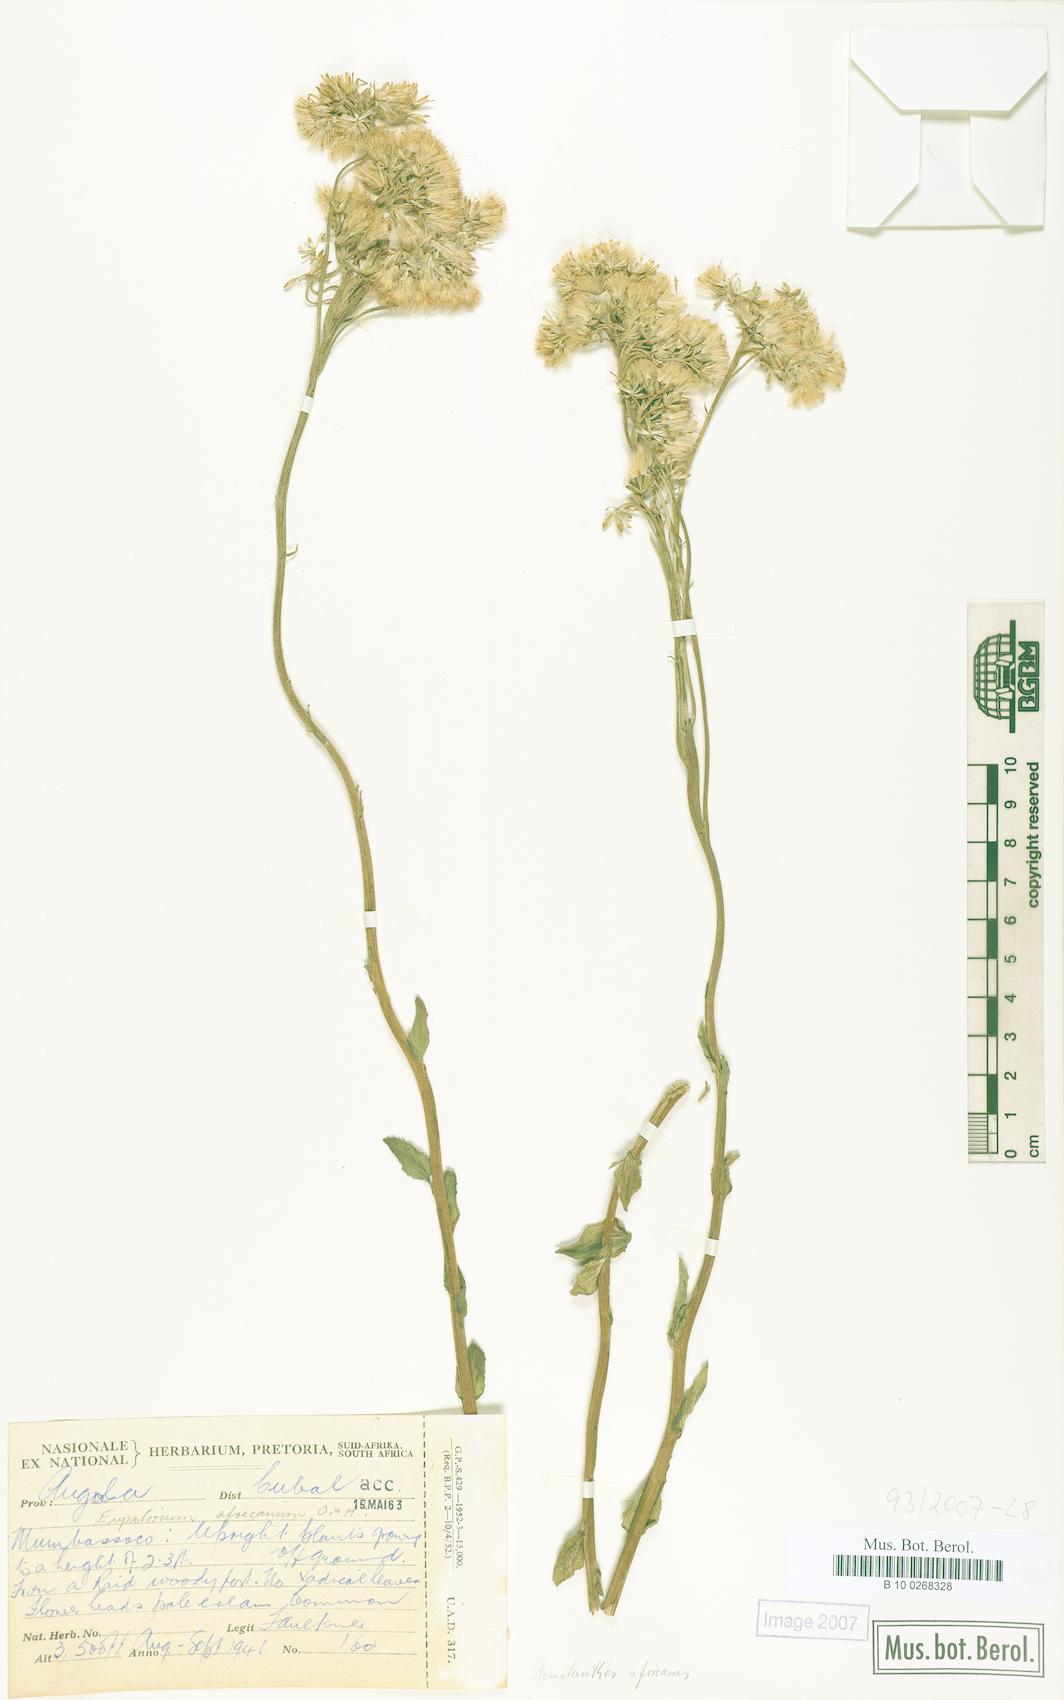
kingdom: Plantae
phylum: Tracheophyta
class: Magnoliopsida
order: Asterales
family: Asteraceae
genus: Stomatanthes
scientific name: Stomatanthes africanus
